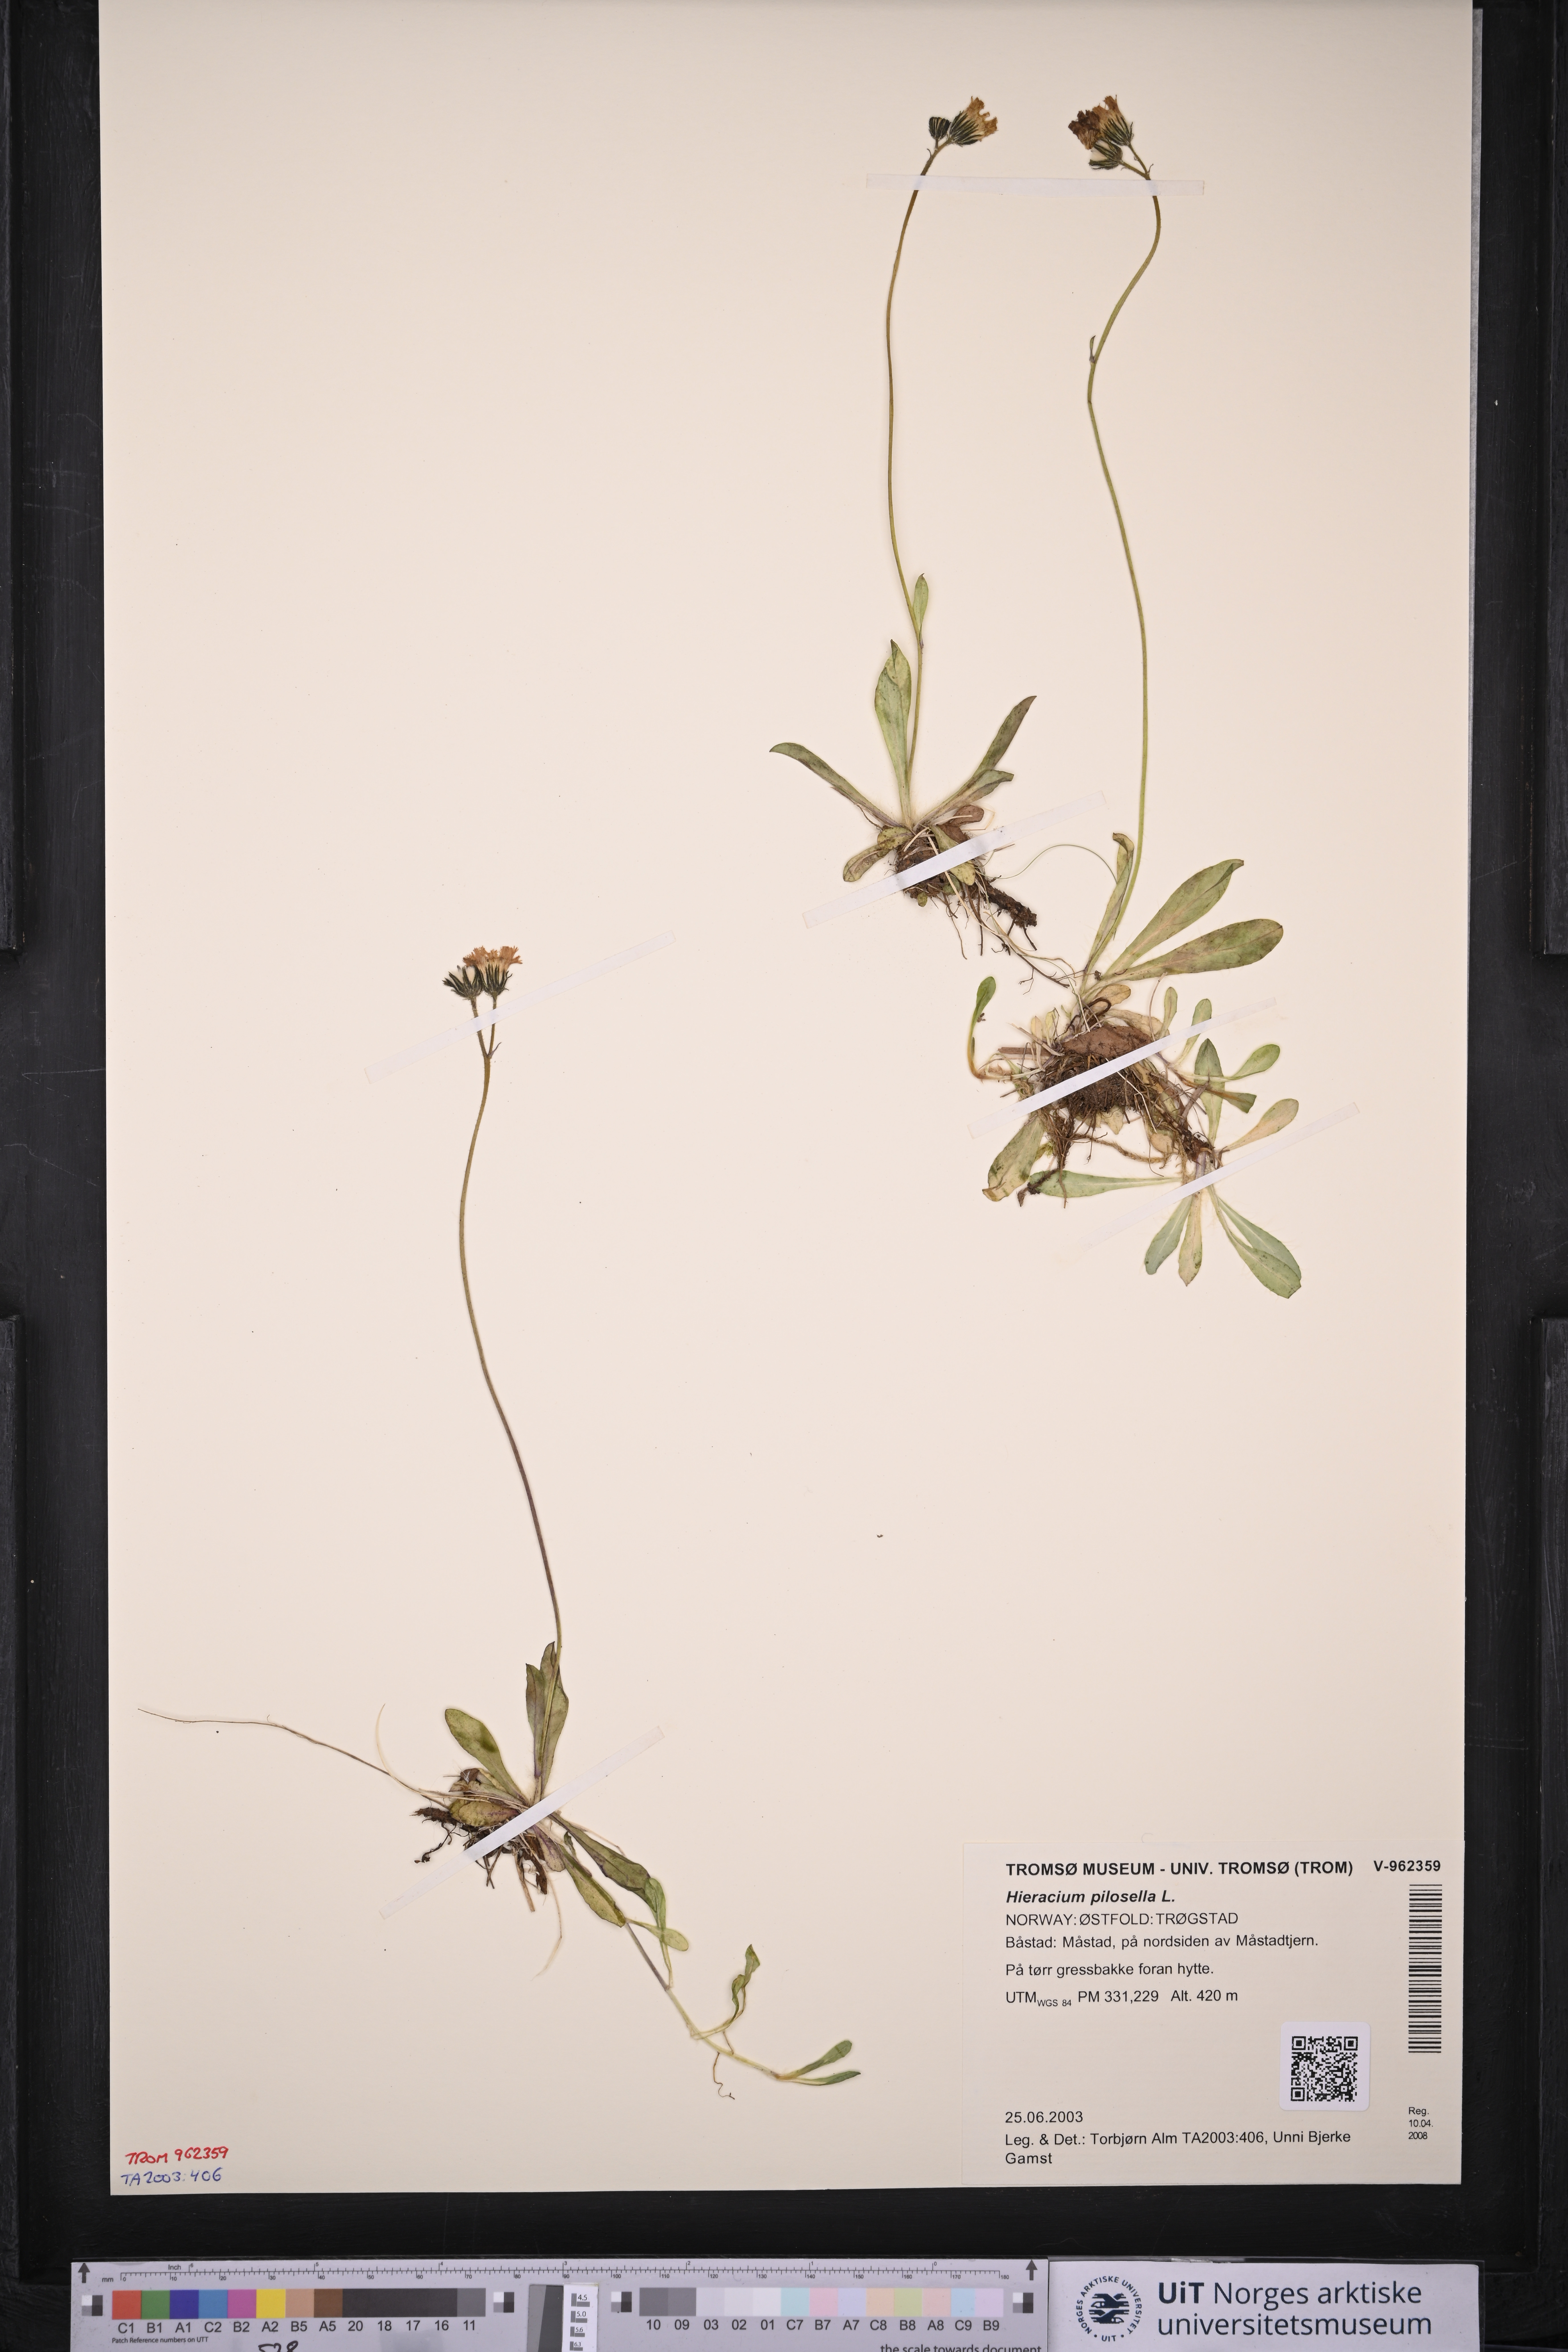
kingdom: Plantae
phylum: Tracheophyta
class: Magnoliopsida
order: Asterales
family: Asteraceae
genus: Pilosella
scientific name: Pilosella officinarum
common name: Mouse-ear hawkweed
